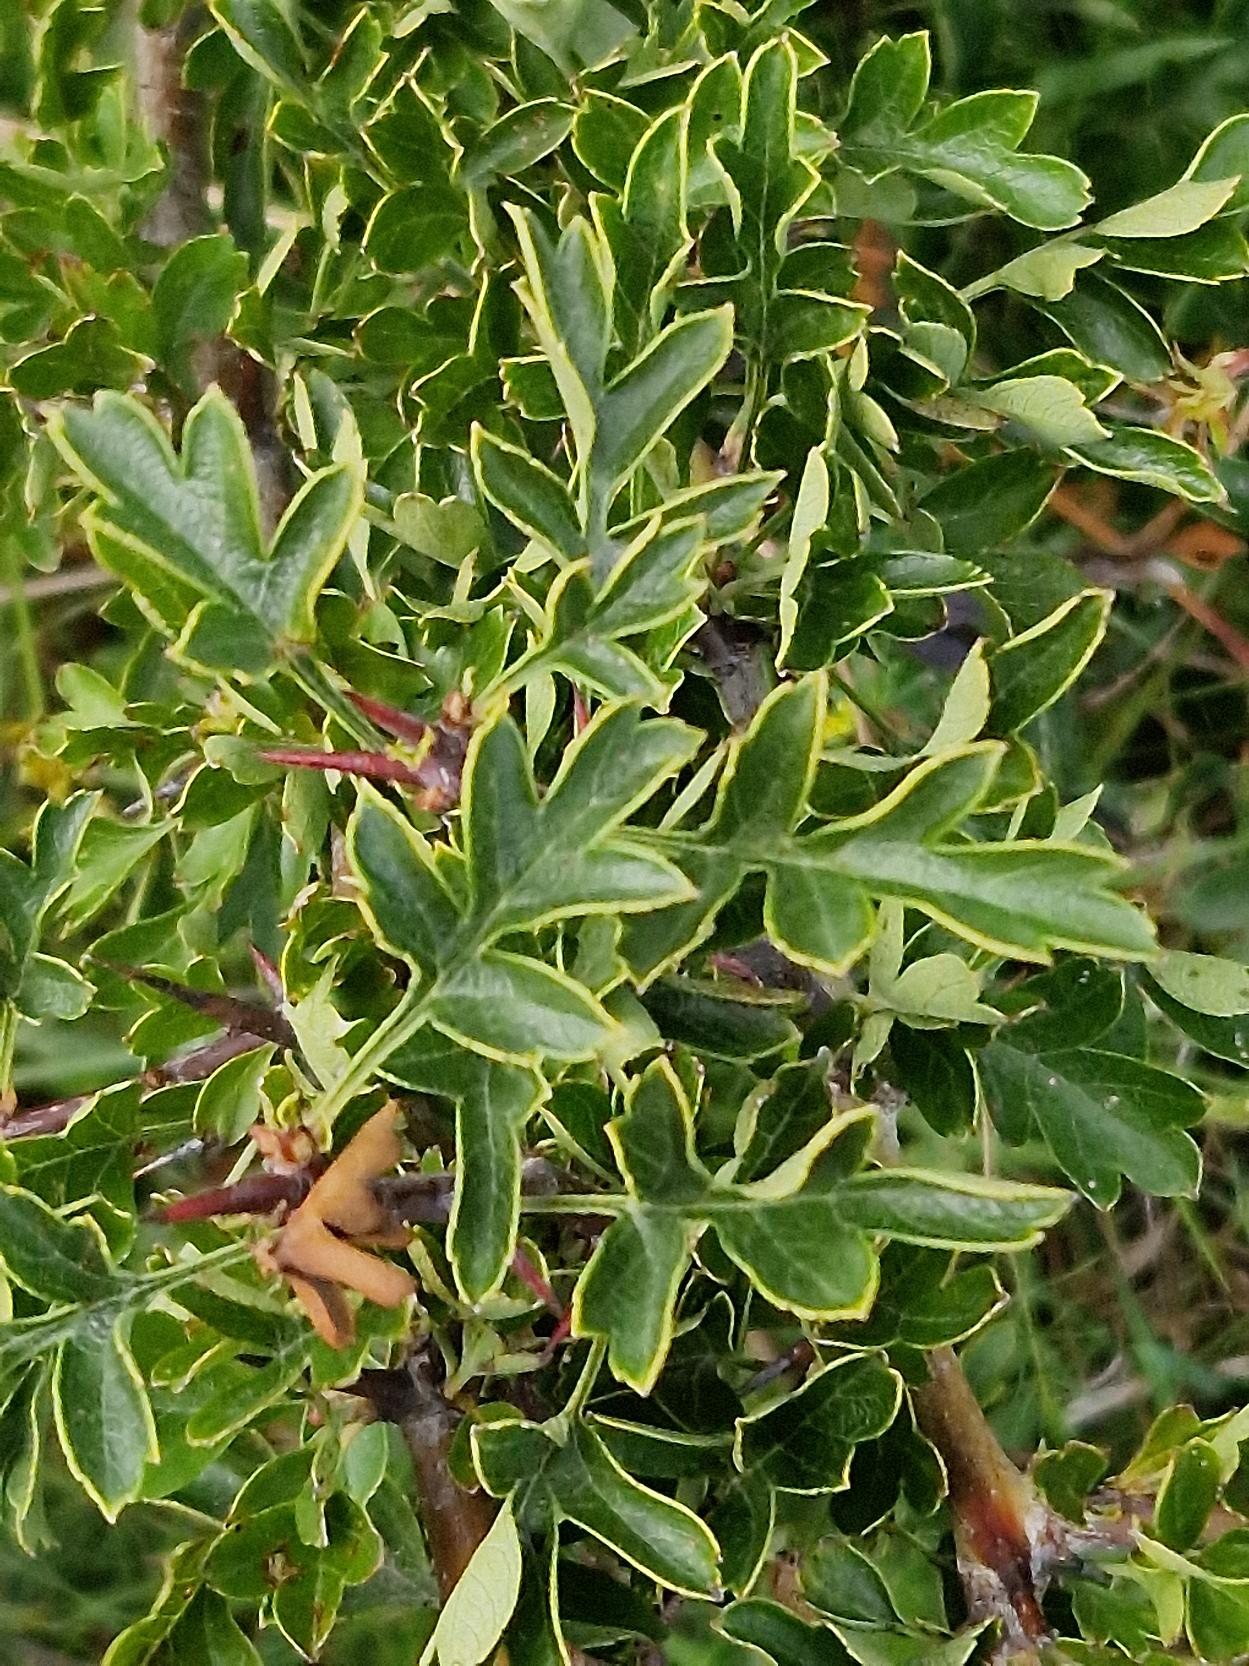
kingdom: Plantae
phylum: Tracheophyta
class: Magnoliopsida
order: Rosales
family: Rosaceae
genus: Crataegus
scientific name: Crataegus monogyna
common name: Engriflet hvidtjørn
